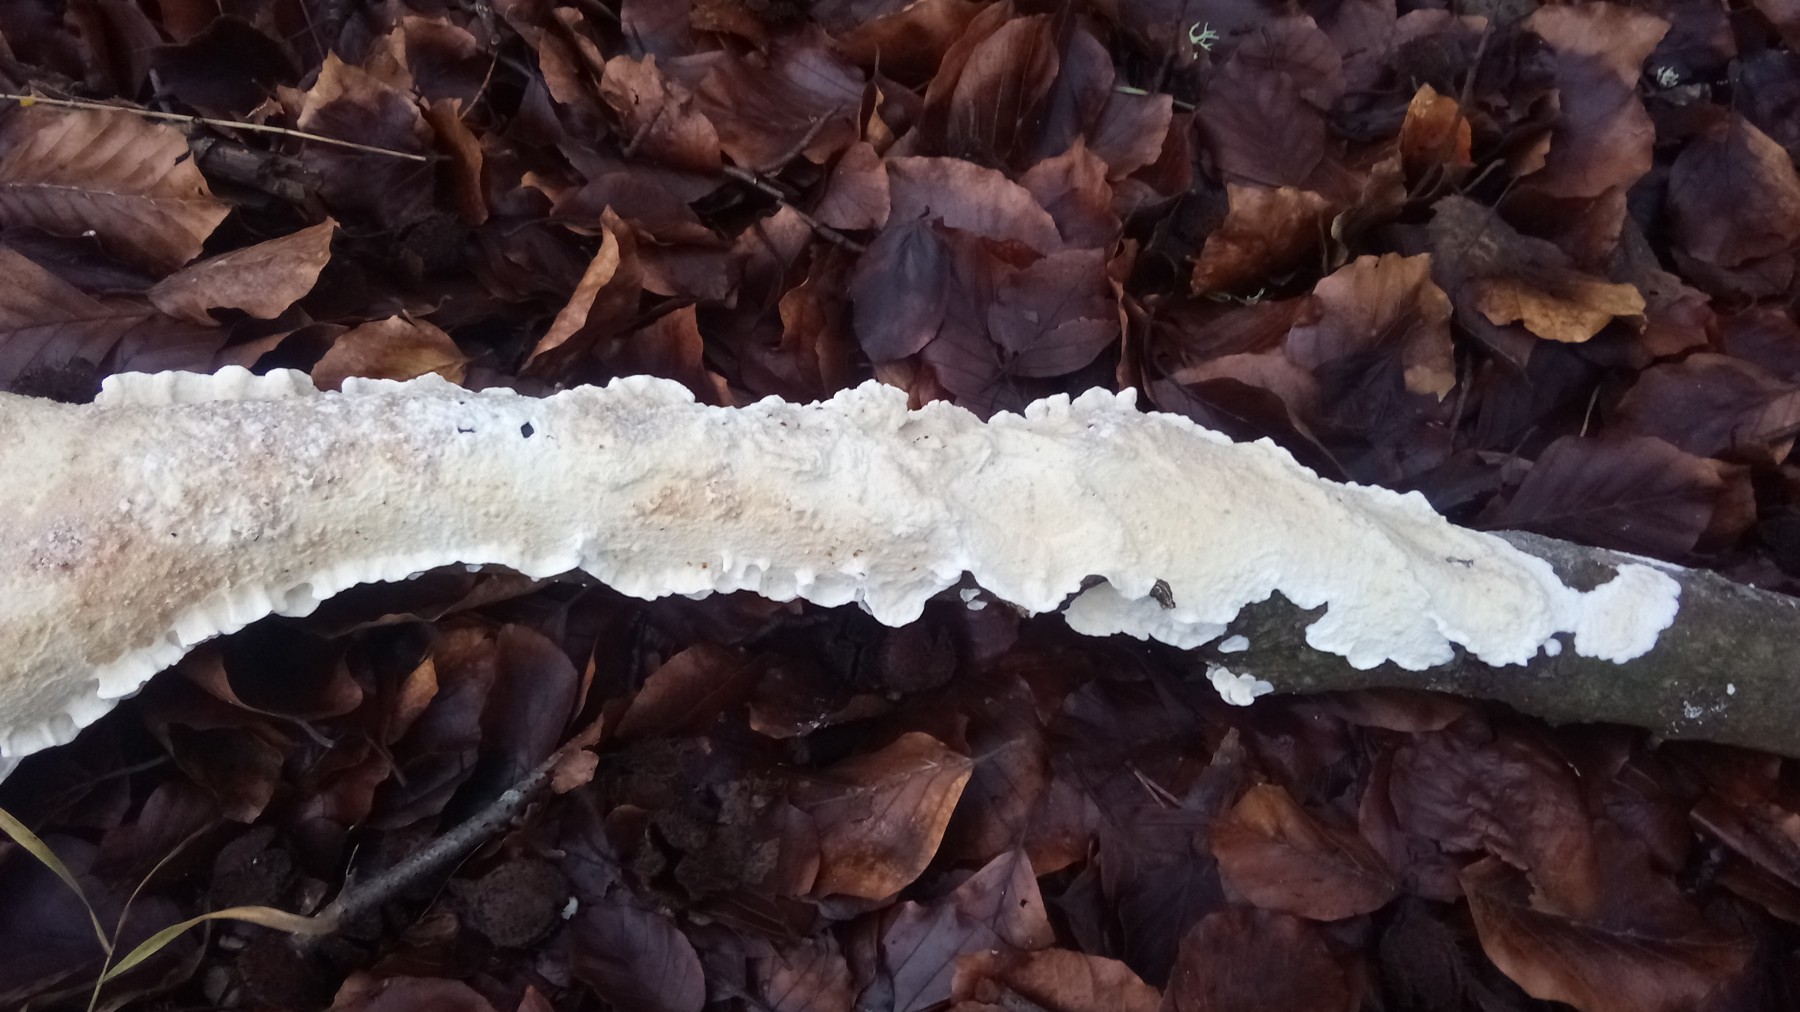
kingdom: Fungi
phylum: Basidiomycota
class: Agaricomycetes
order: Polyporales
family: Irpicaceae
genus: Byssomerulius
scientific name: Byssomerulius corium
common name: læder-åresvamp
